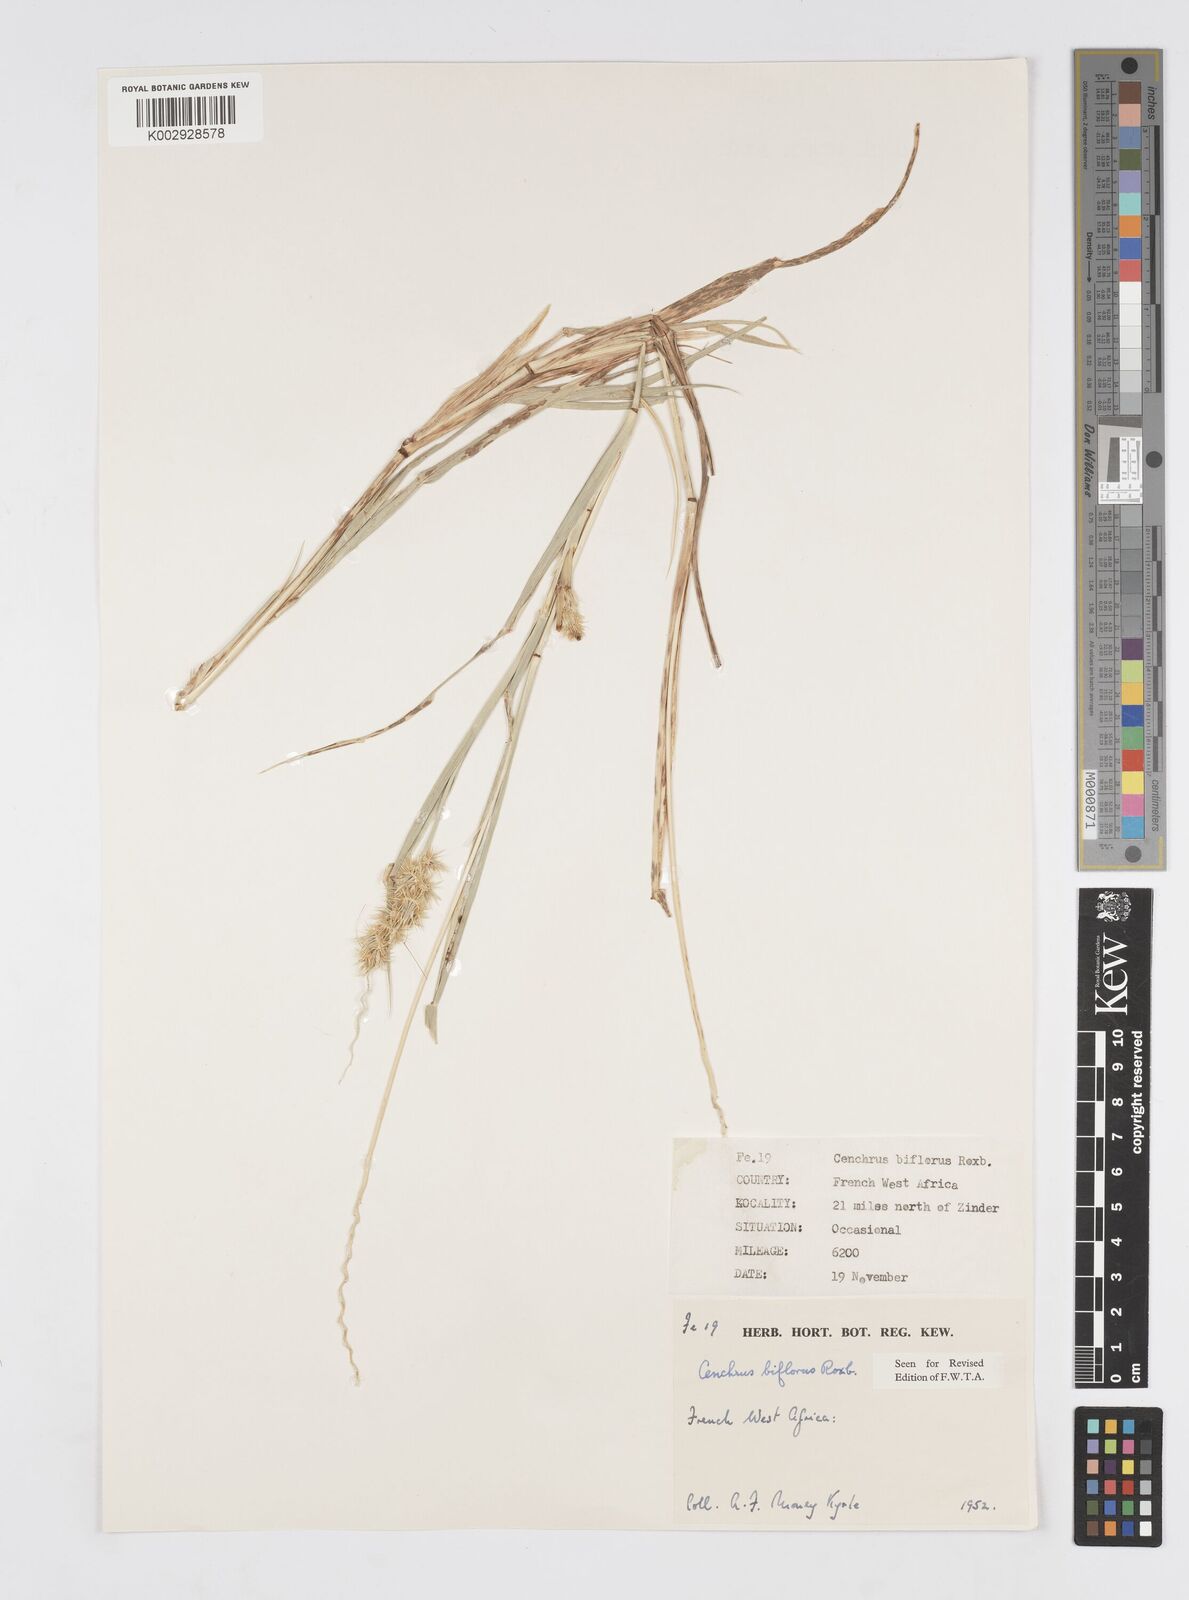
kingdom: Plantae
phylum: Tracheophyta
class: Liliopsida
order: Poales
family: Poaceae
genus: Cenchrus
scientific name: Cenchrus biflorus
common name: Indian sandbur
